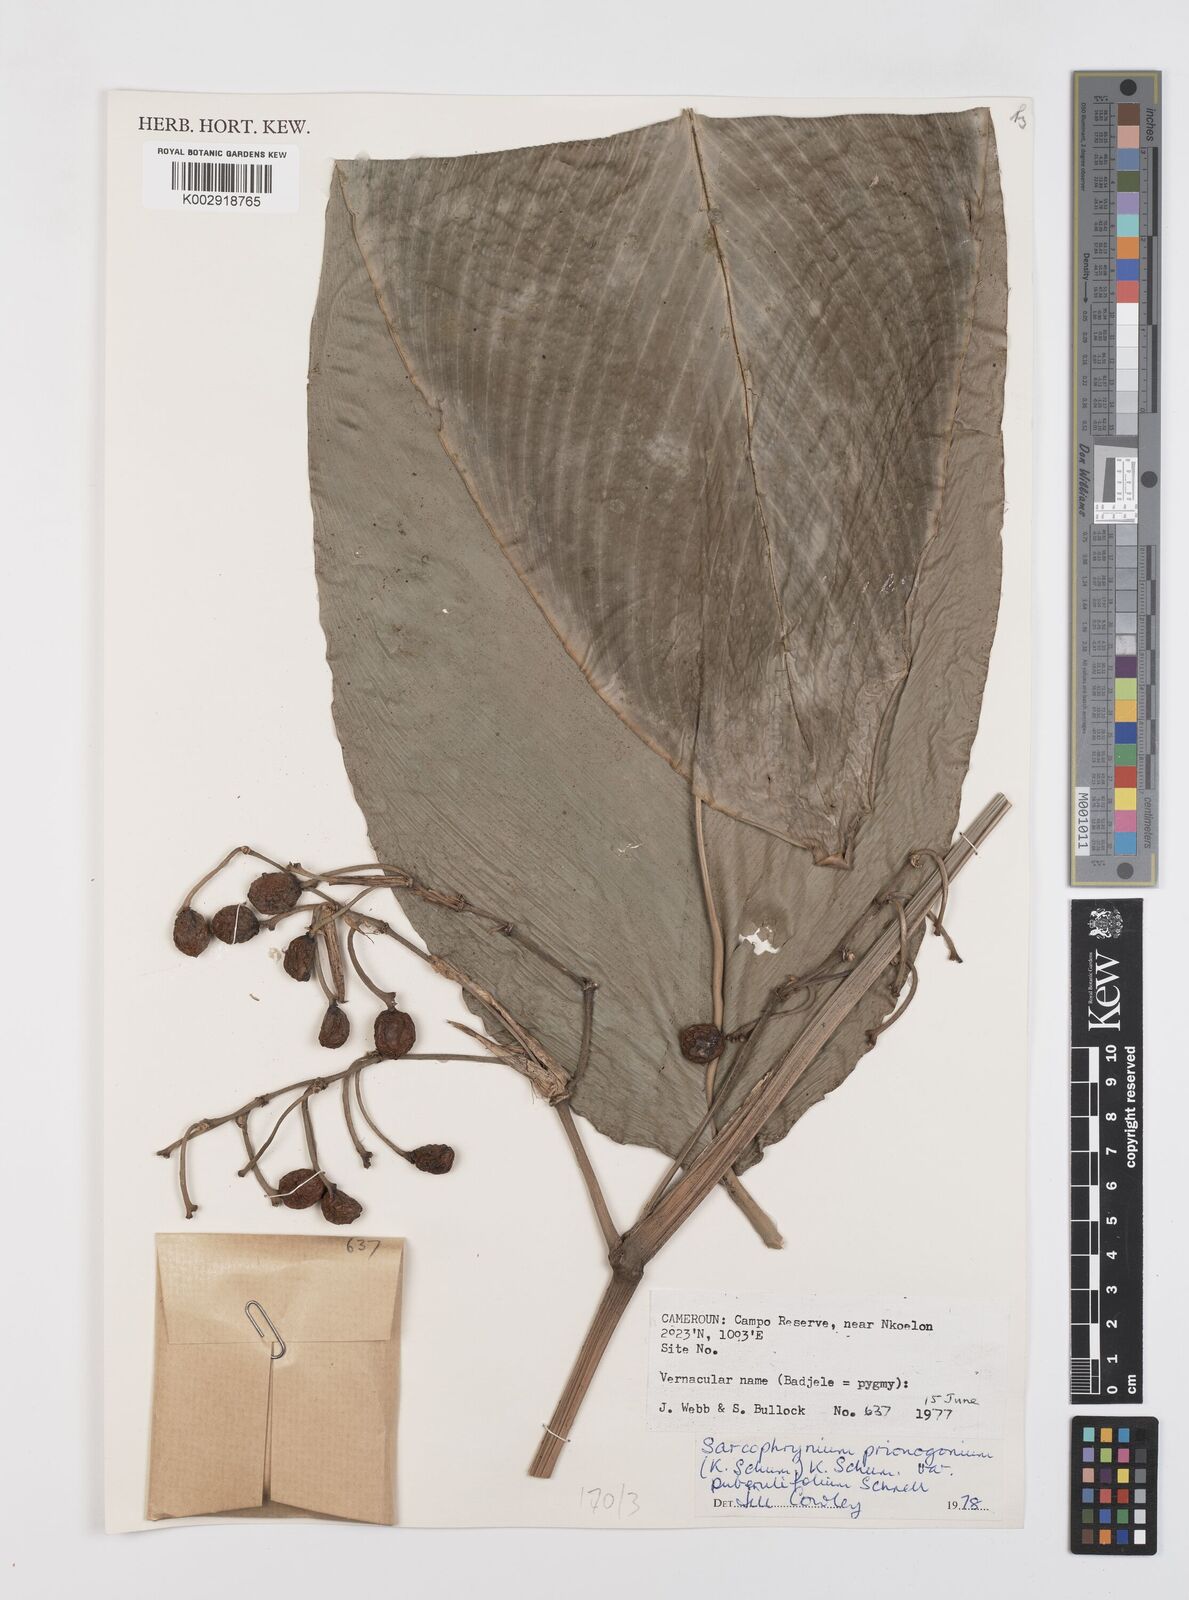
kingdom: Plantae
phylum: Tracheophyta
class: Liliopsida
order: Zingiberales
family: Marantaceae
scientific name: Marantaceae
